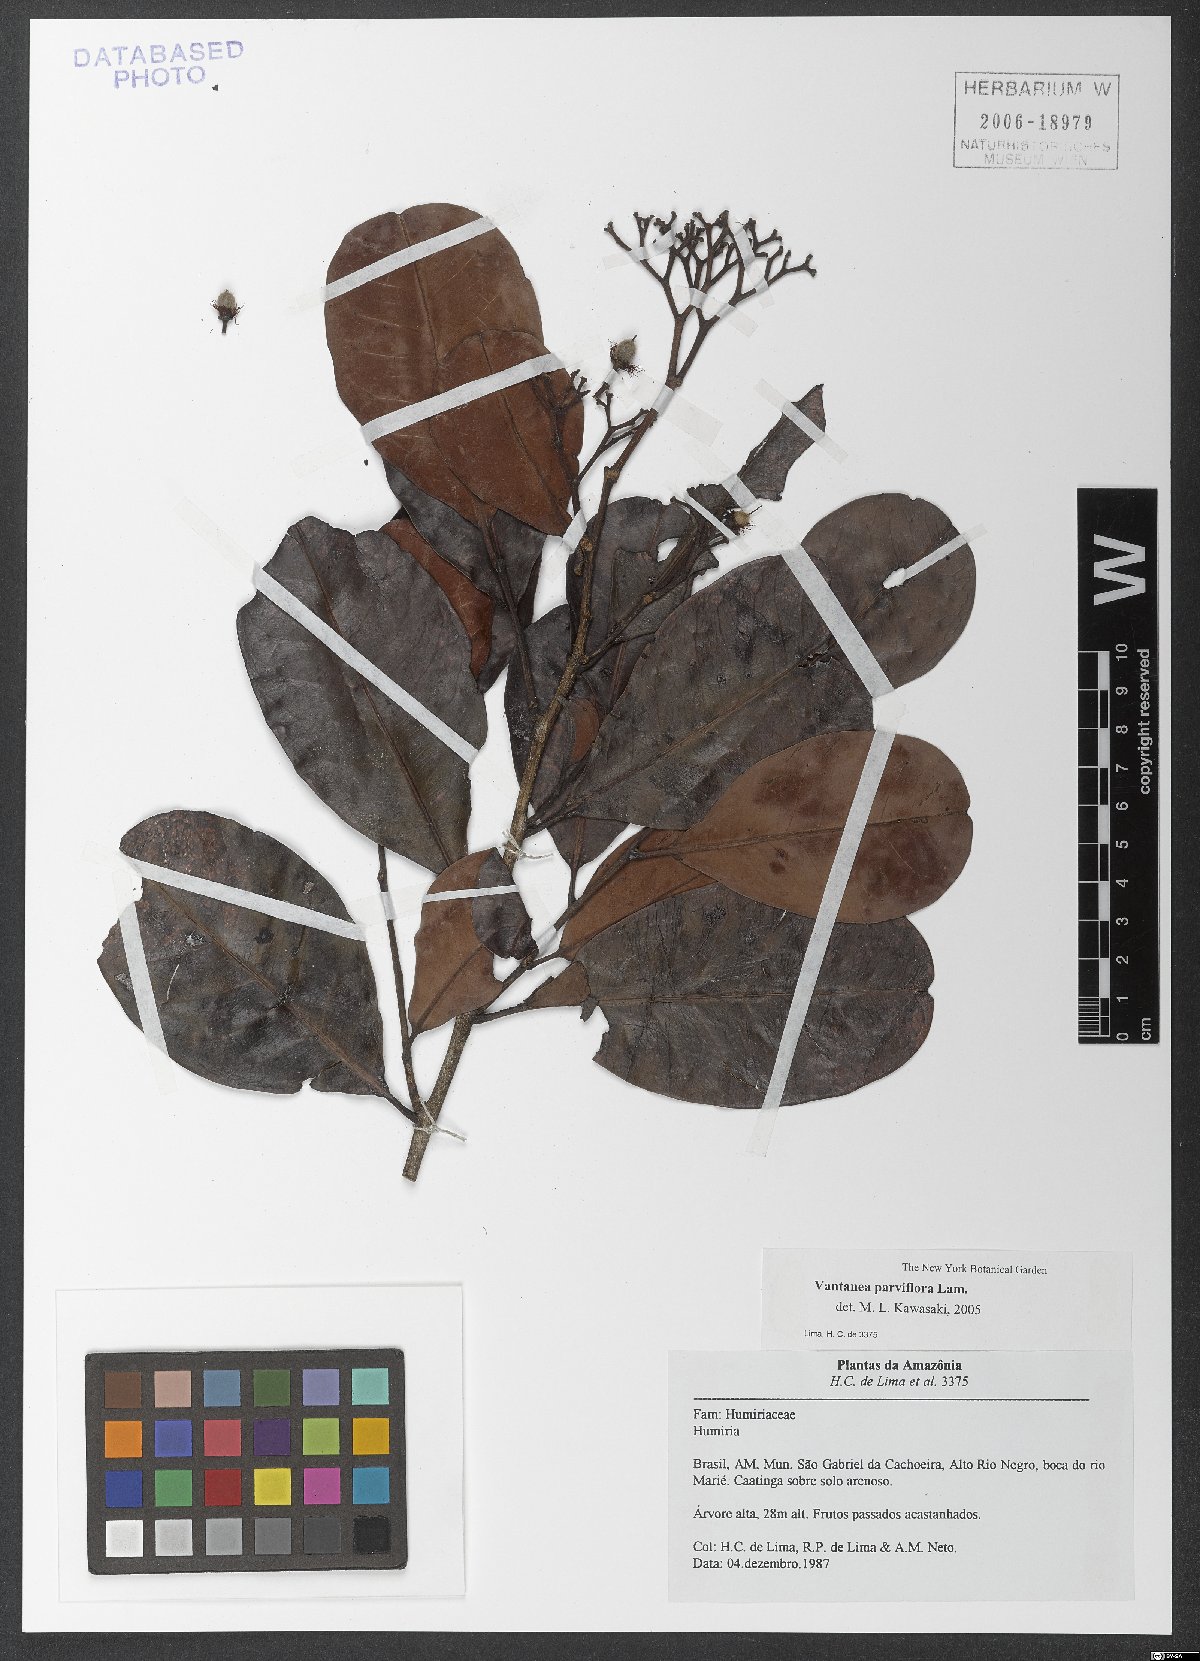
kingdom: Plantae
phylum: Tracheophyta
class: Magnoliopsida
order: Malpighiales
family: Humiriaceae
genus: Vantanea
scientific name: Vantanea parviflora
